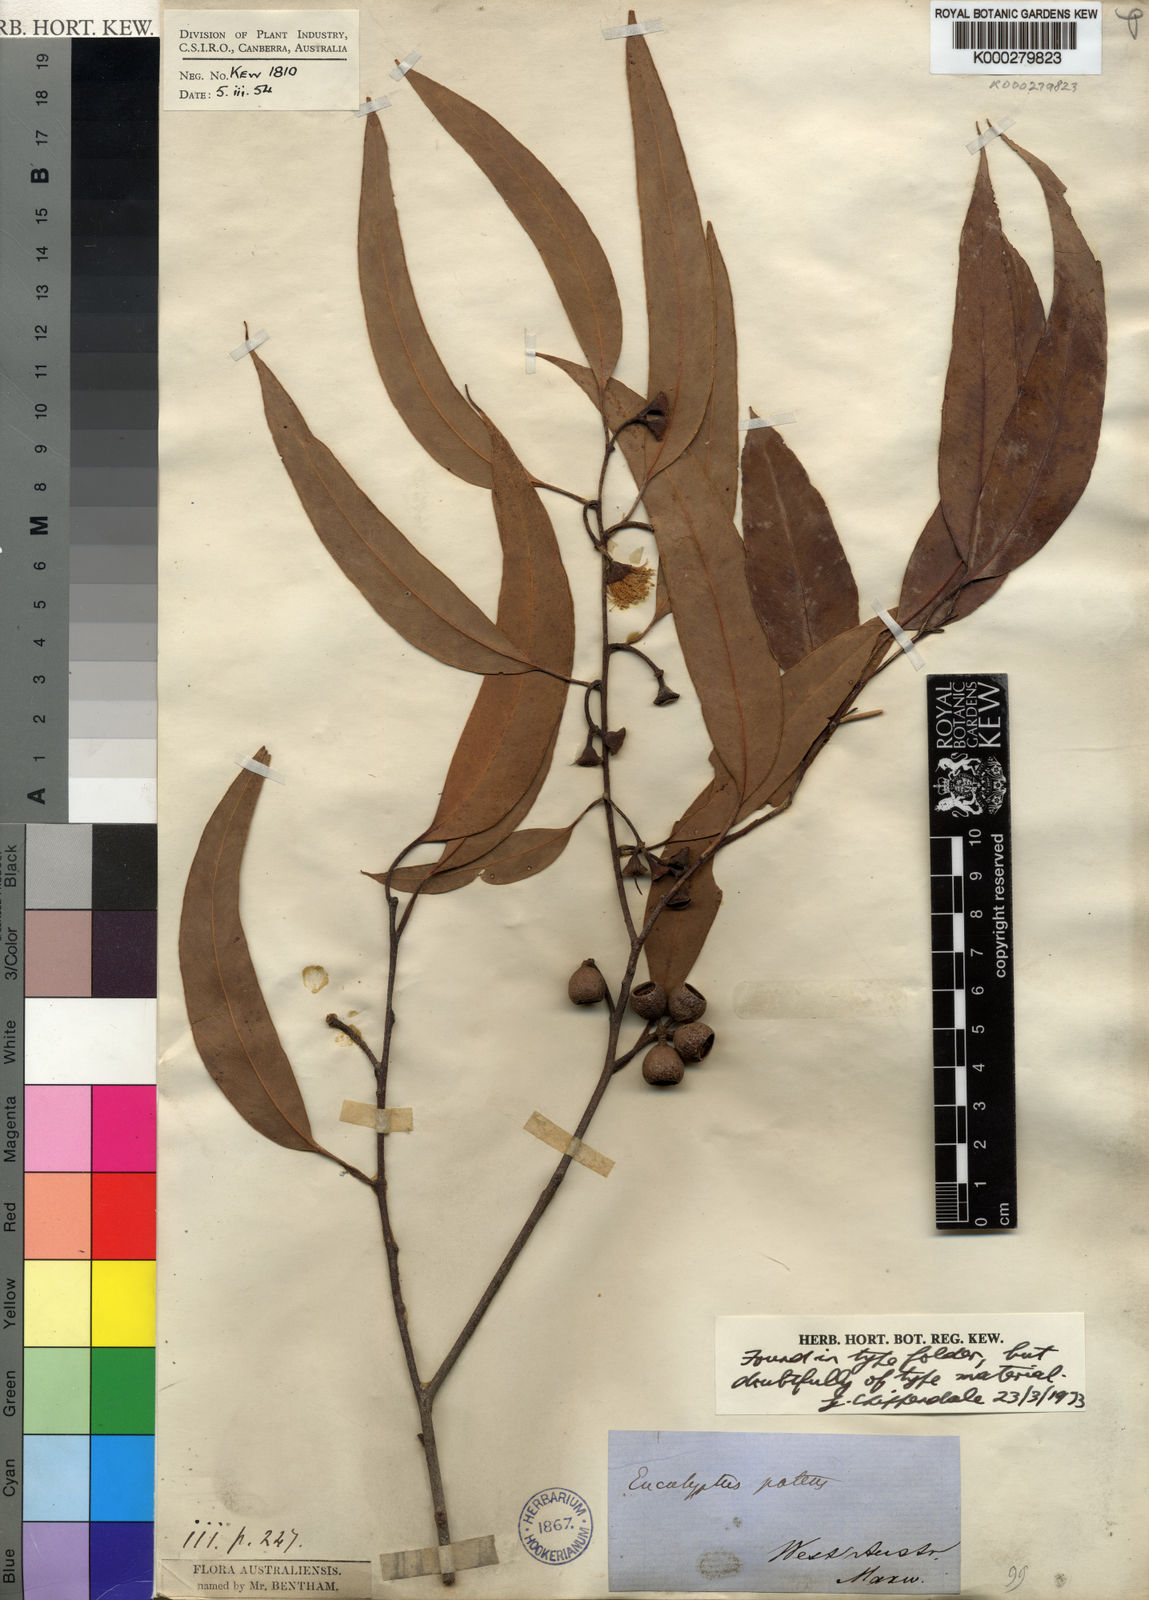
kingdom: Plantae
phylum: Tracheophyta
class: Magnoliopsida
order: Myrtales
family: Myrtaceae
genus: Eucalyptus
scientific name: Eucalyptus patens
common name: Swan river blackbutt
